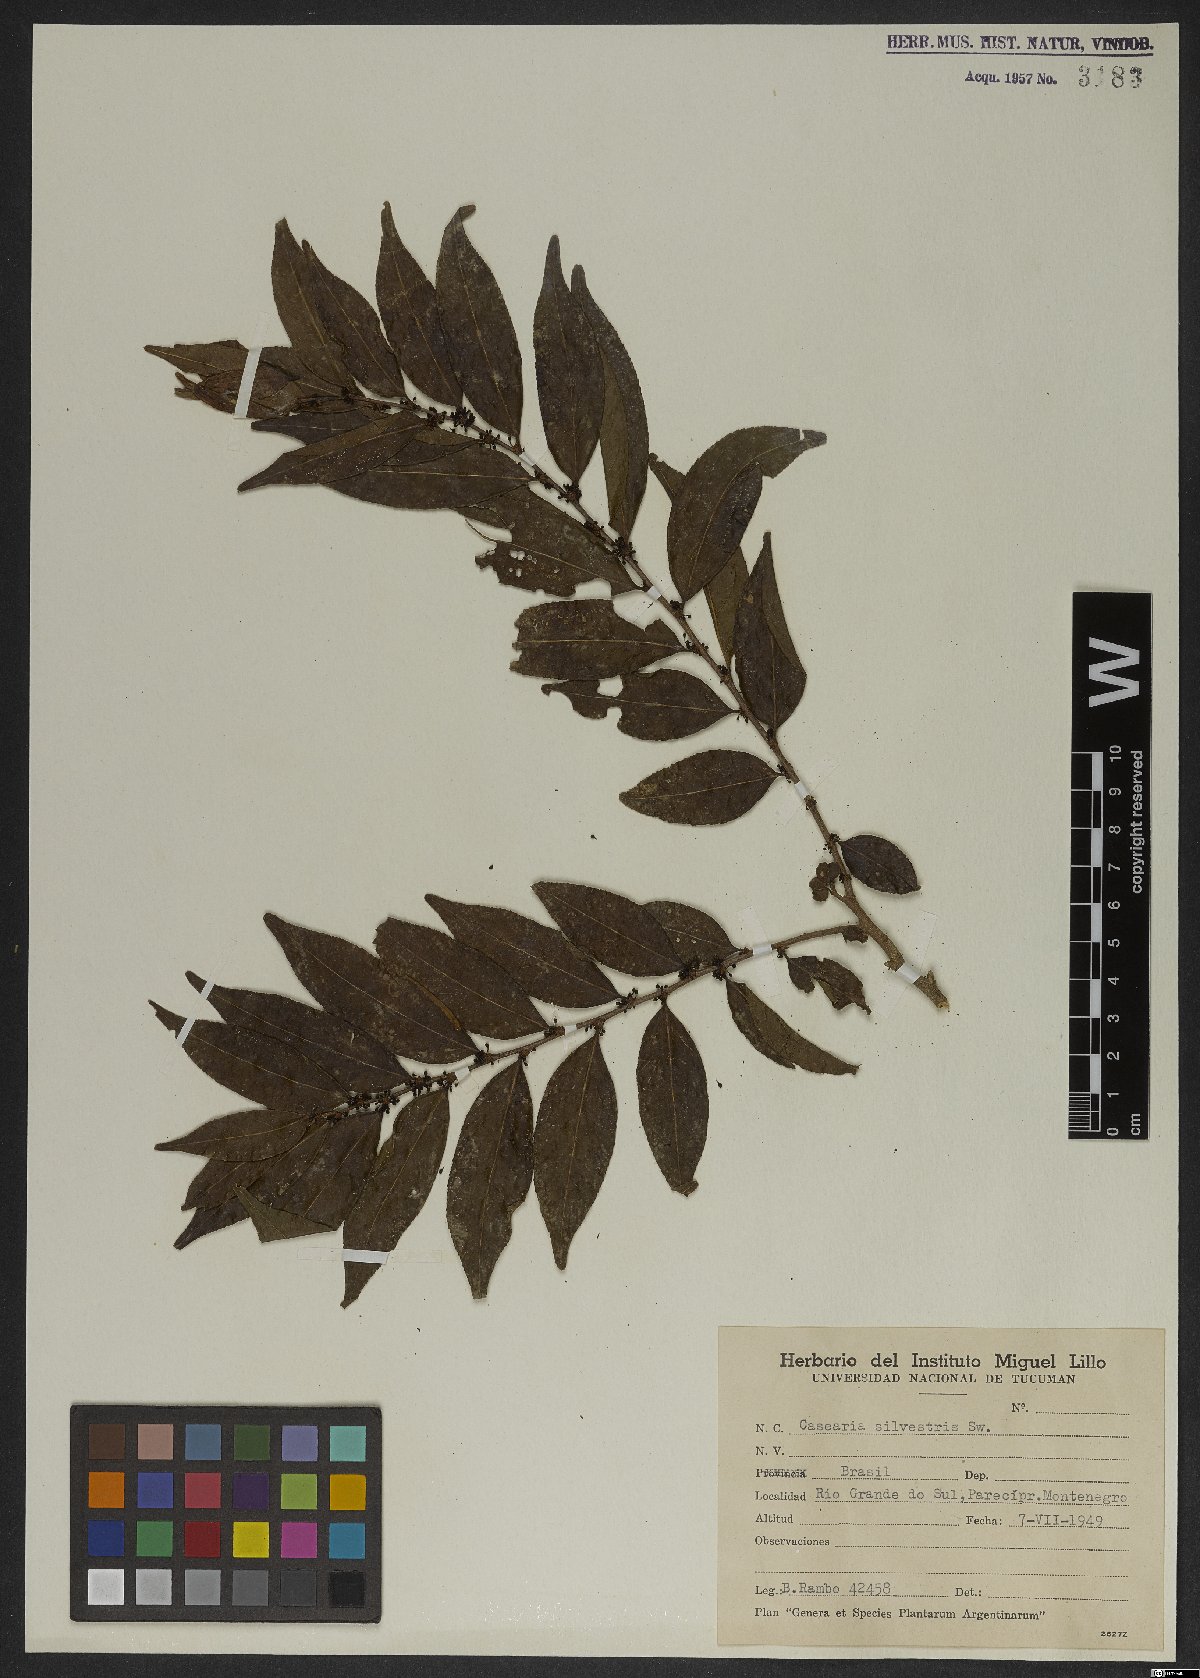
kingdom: Plantae
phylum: Tracheophyta
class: Magnoliopsida
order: Malpighiales
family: Salicaceae
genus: Casearia
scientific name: Casearia sylvestris
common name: Wild sage
